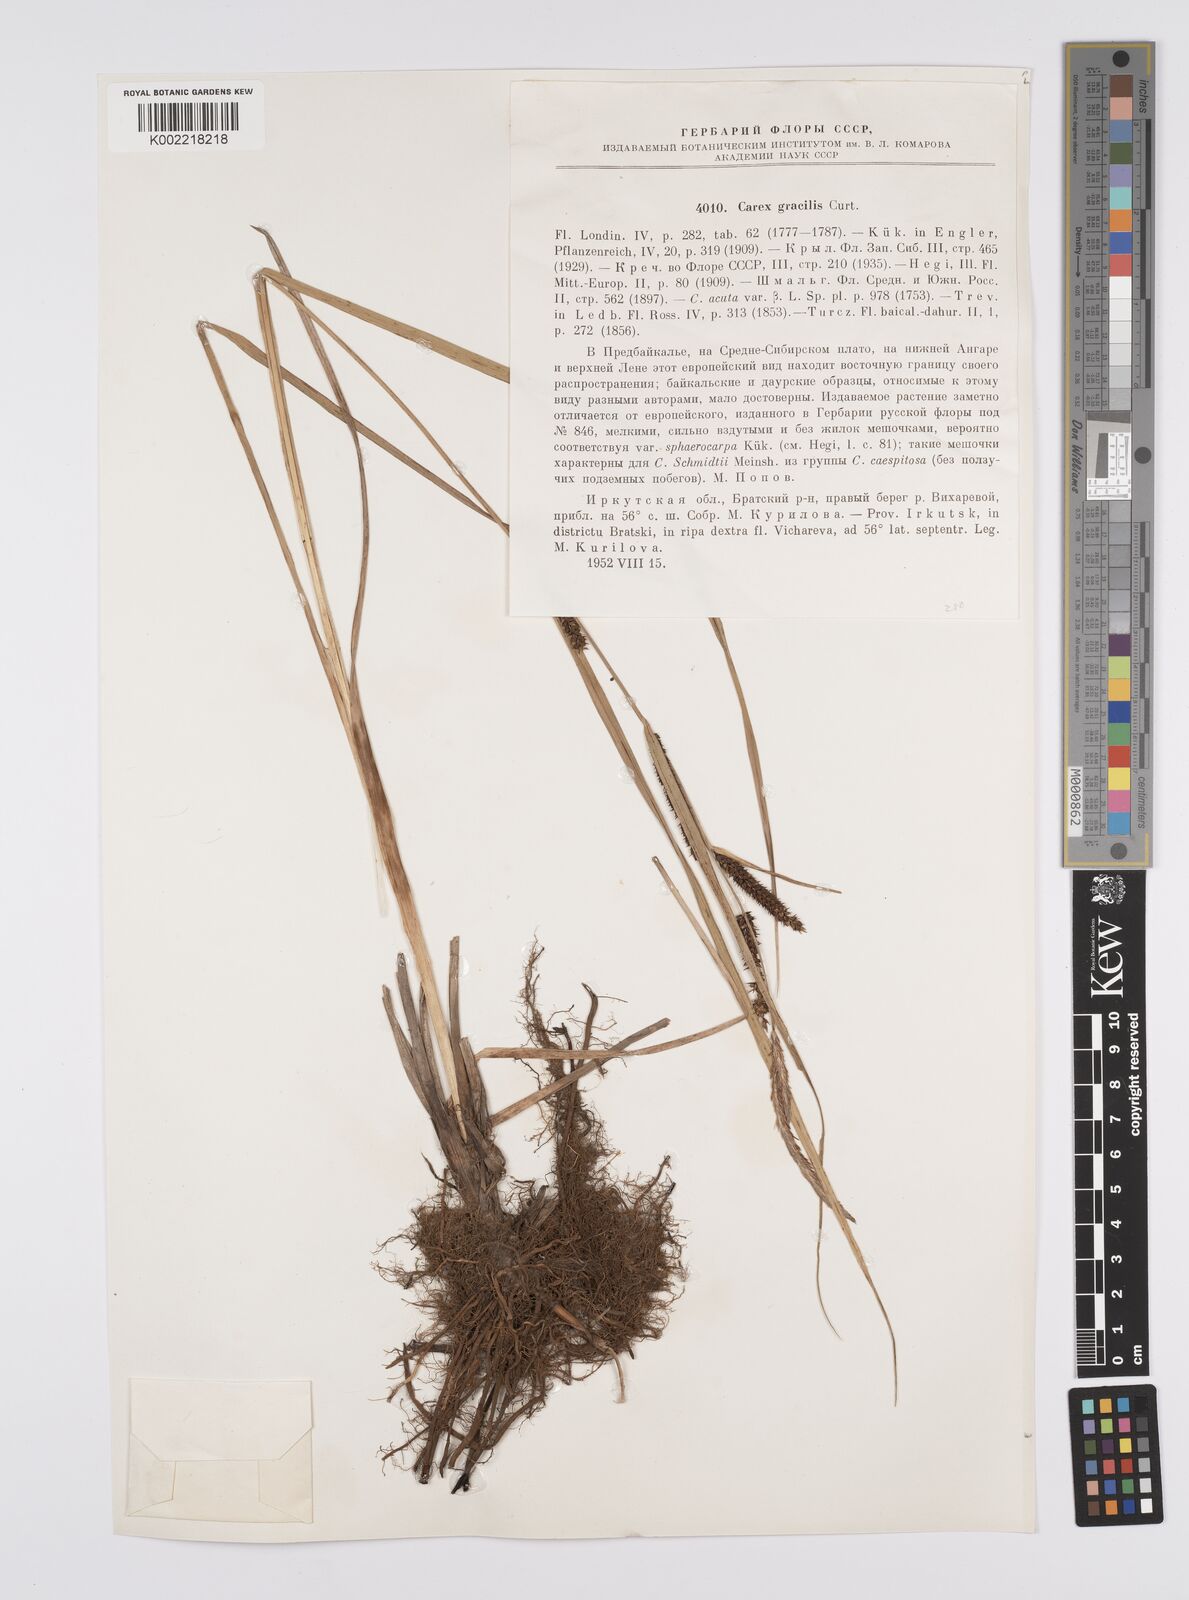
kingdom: Plantae
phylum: Tracheophyta
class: Liliopsida
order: Poales
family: Cyperaceae
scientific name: Cyperaceae
